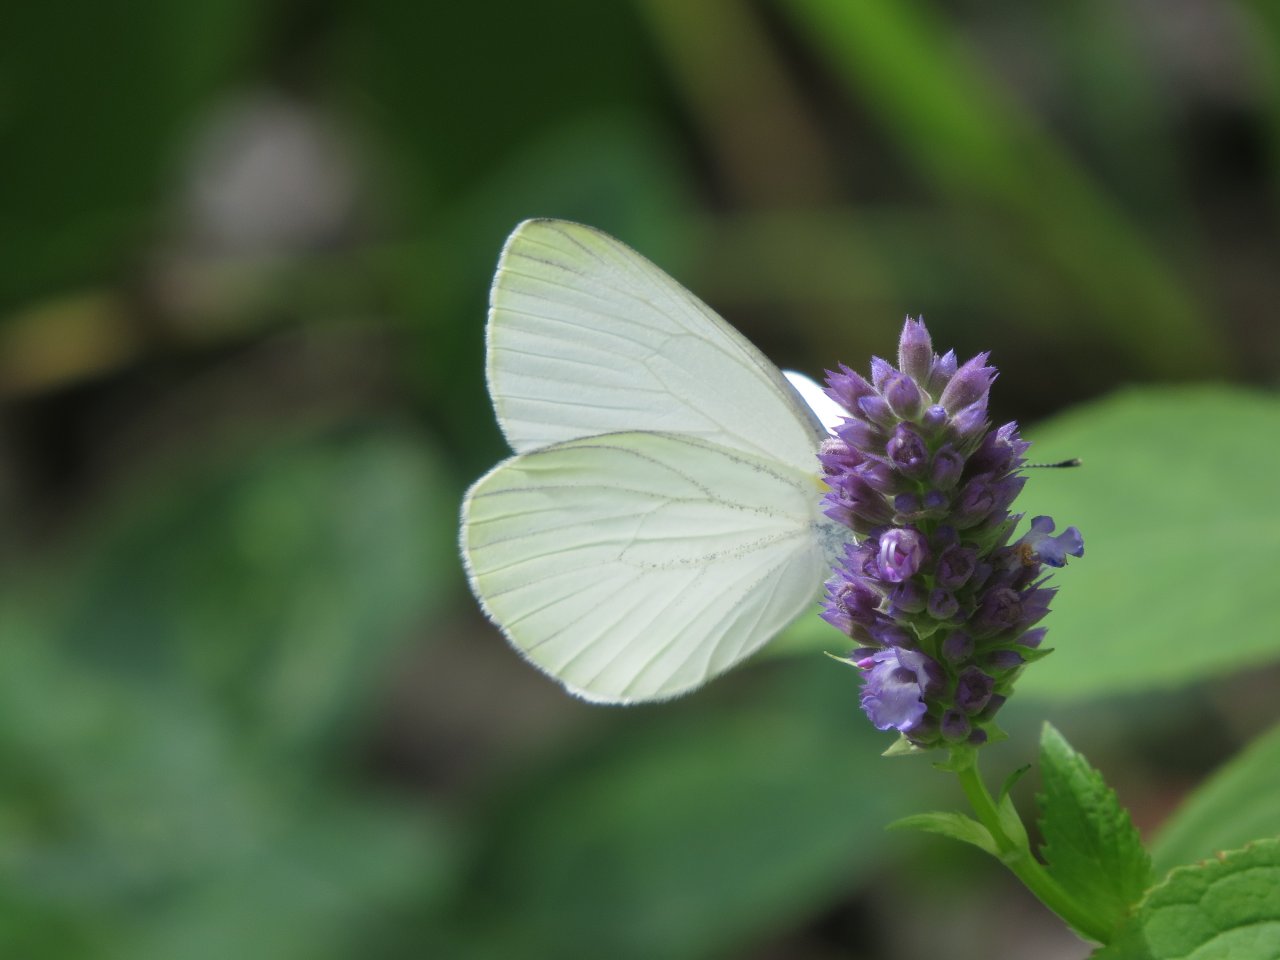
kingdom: Animalia
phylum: Arthropoda
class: Insecta
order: Lepidoptera
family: Pieridae
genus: Pieris
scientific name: Pieris oleracea
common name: Mustard White
